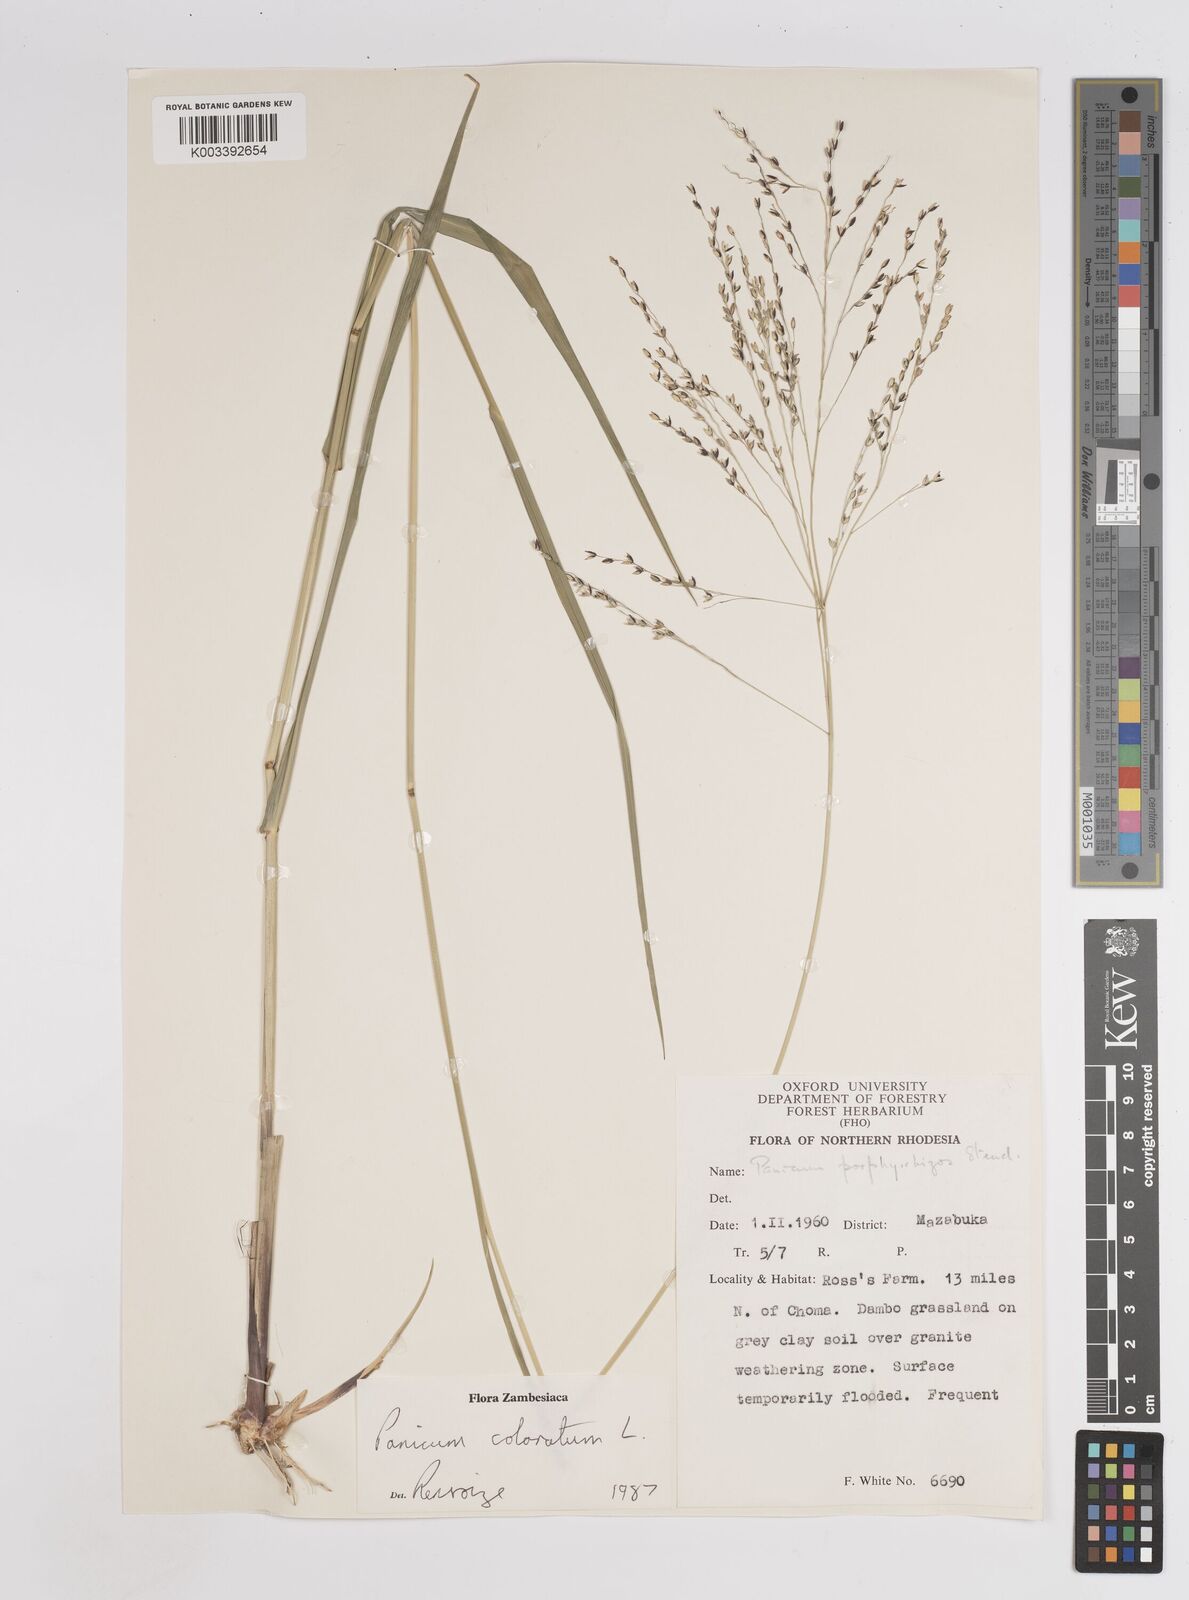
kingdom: Plantae
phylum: Tracheophyta
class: Liliopsida
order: Poales
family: Poaceae
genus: Panicum
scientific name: Panicum
